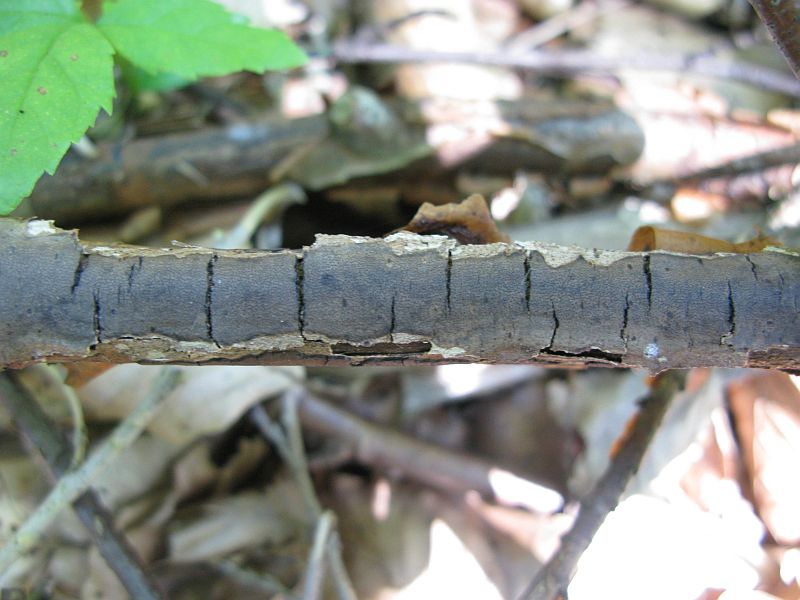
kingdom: Fungi
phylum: Ascomycota
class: Sordariomycetes
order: Xylariales
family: Diatrypaceae
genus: Diatrype
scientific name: Diatrype decorticata
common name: barksprænger-kulskorpe
